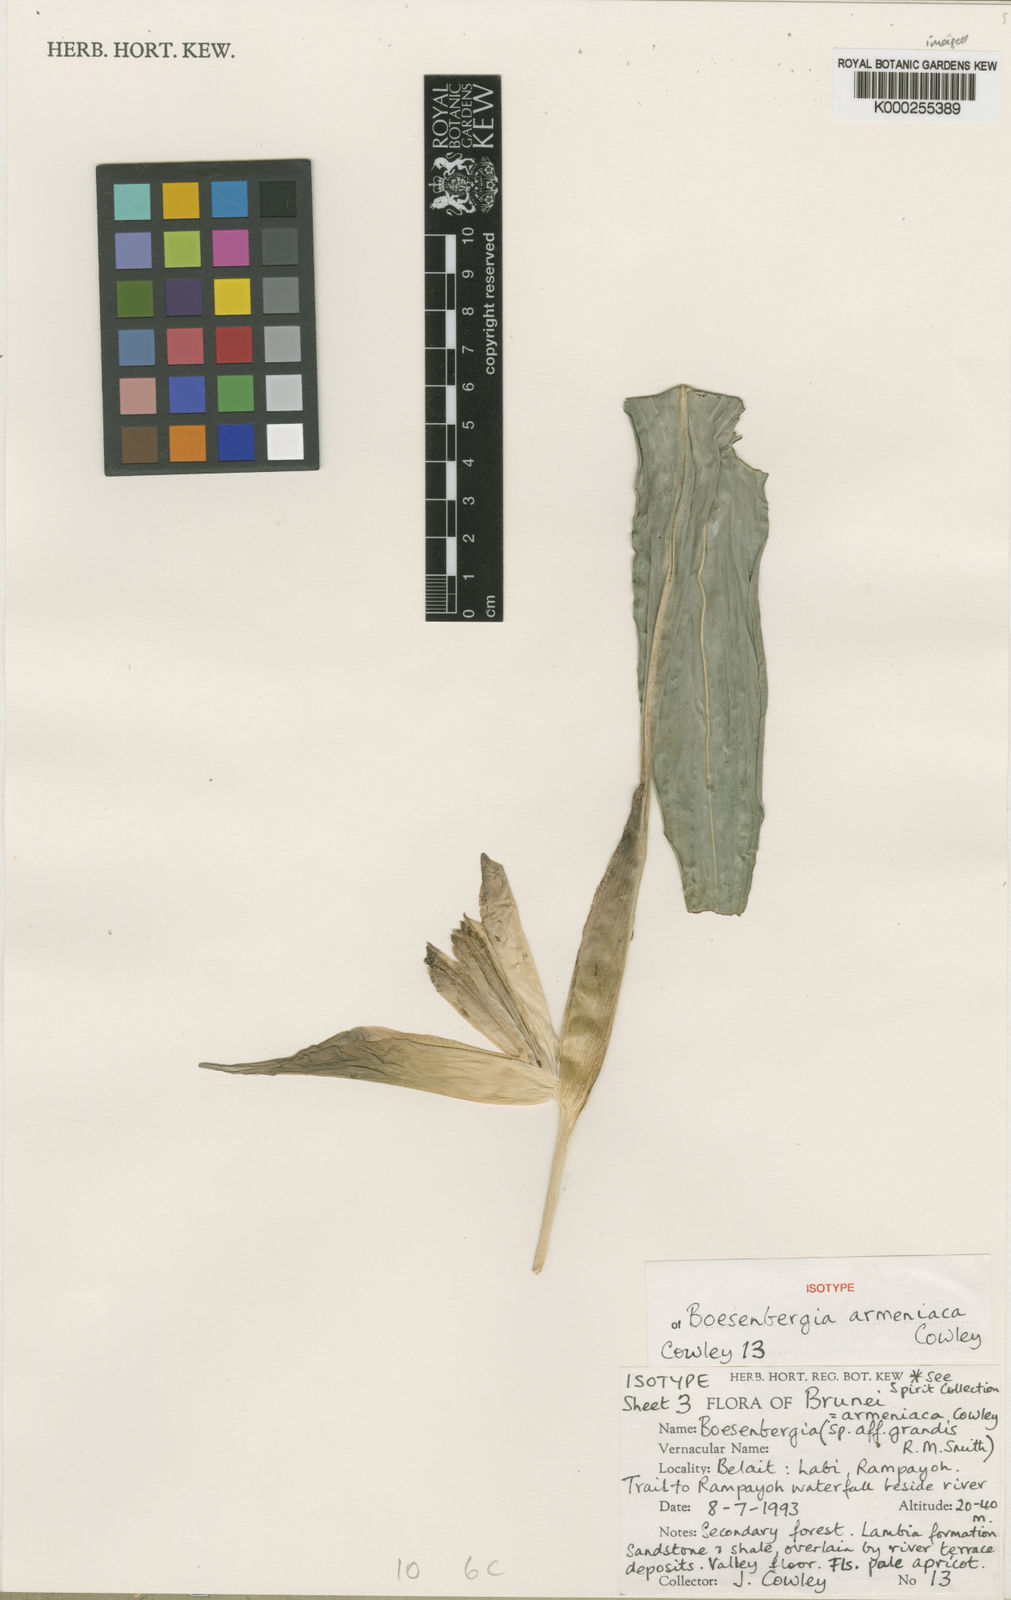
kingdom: Plantae
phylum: Tracheophyta
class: Liliopsida
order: Zingiberales
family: Zingiberaceae
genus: Boesenbergia
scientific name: Boesenbergia armeniaca
